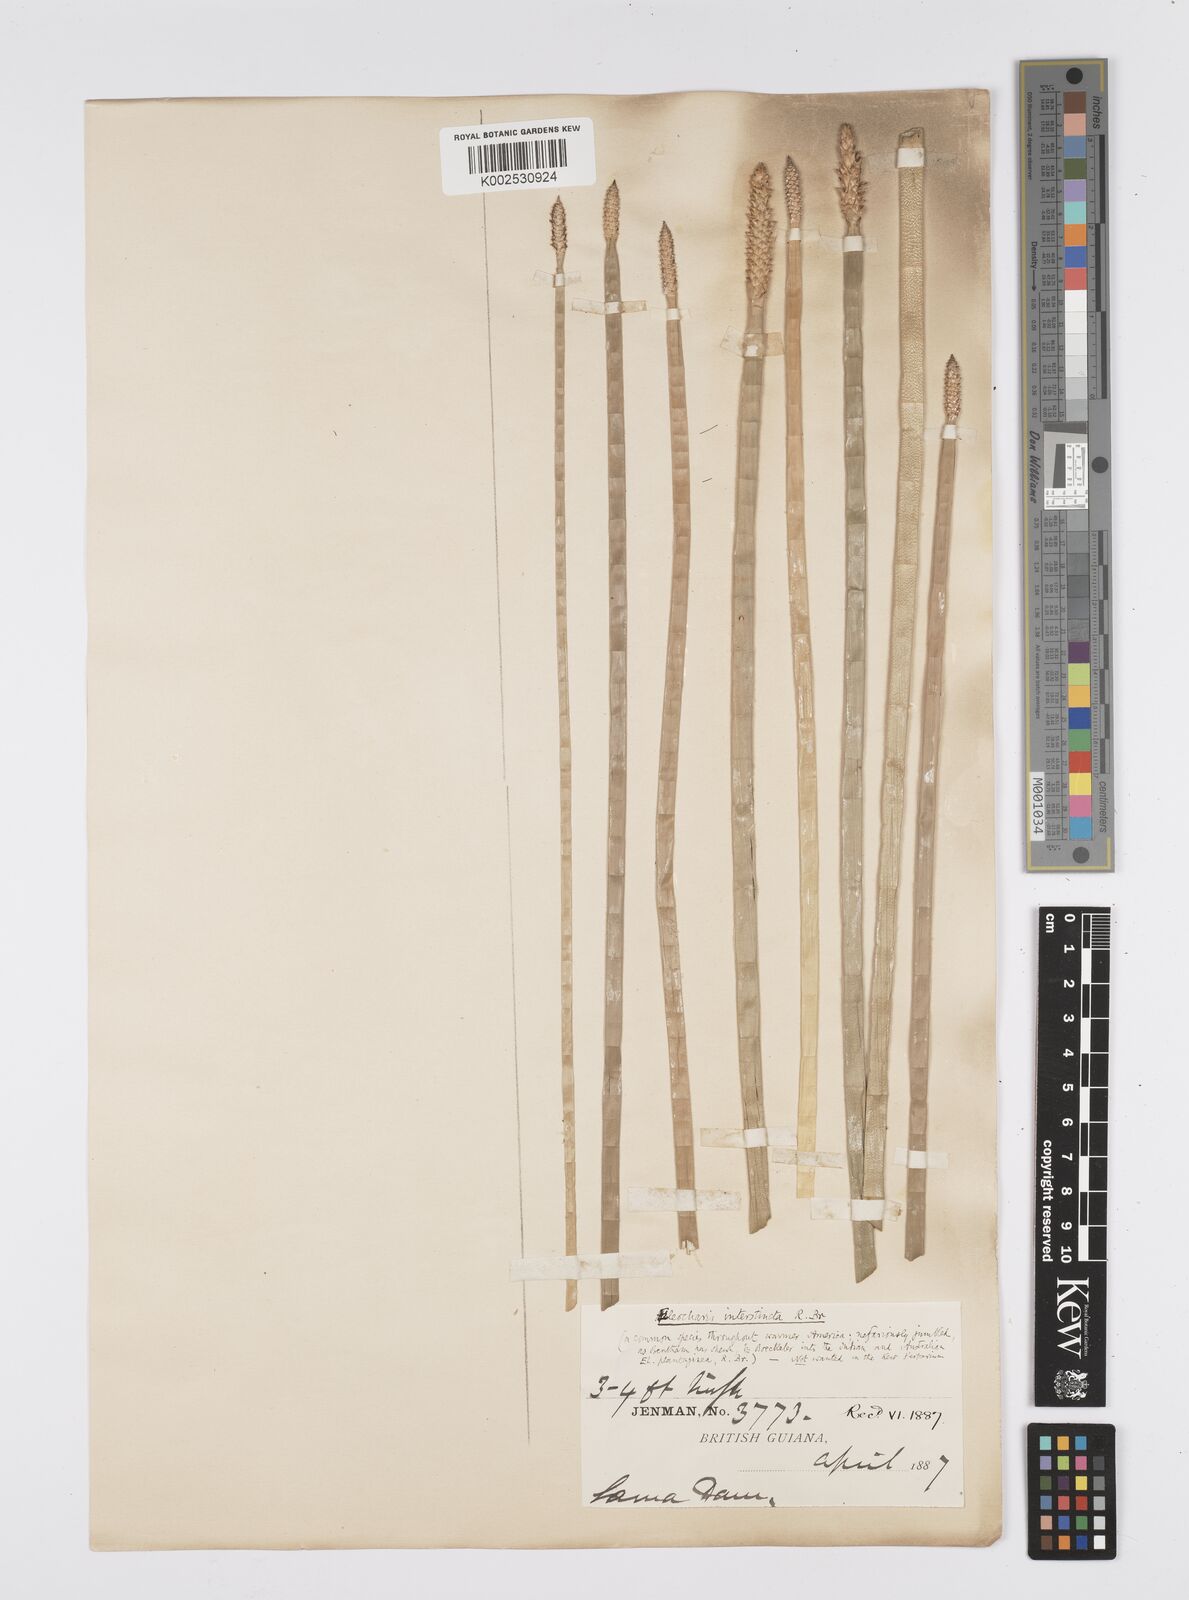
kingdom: Plantae
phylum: Tracheophyta
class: Liliopsida
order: Poales
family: Cyperaceae
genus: Eleocharis
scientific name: Eleocharis interstincta
